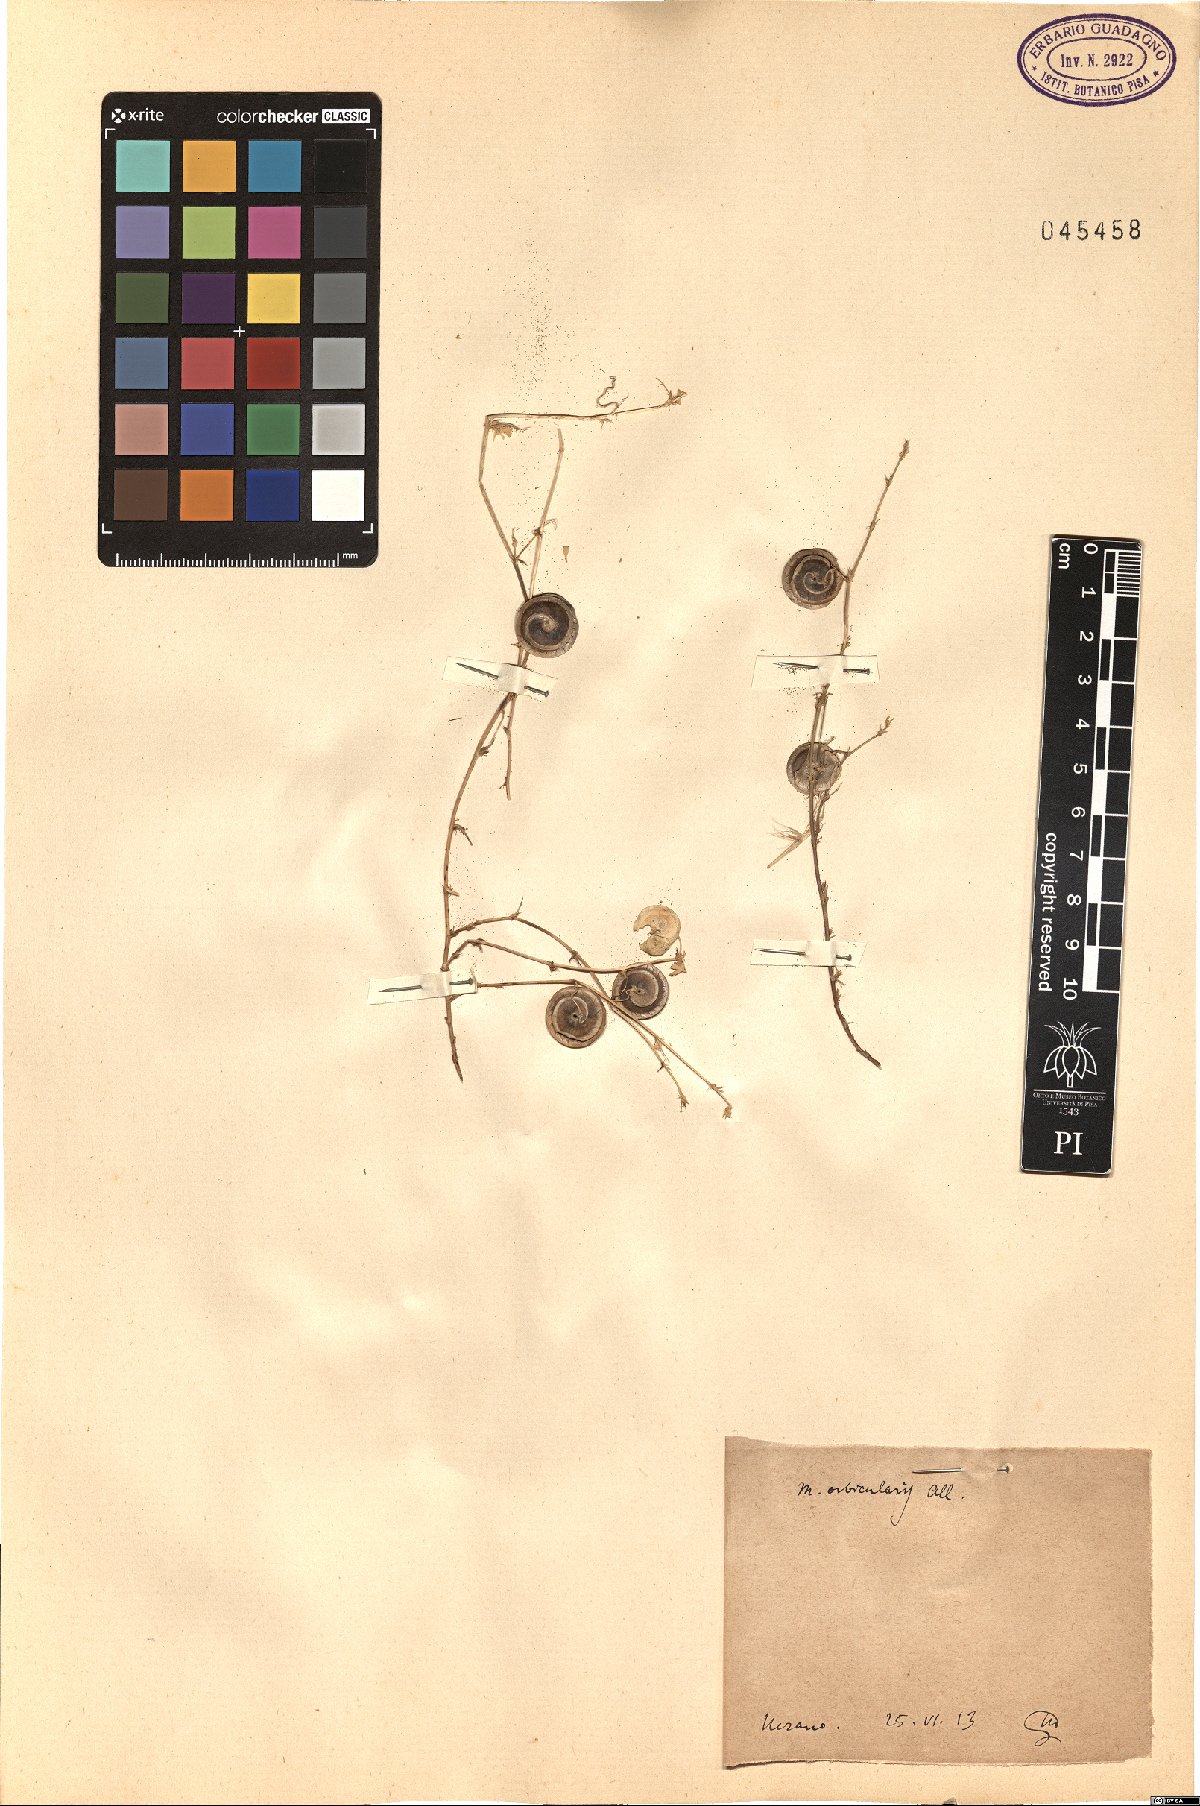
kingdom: Plantae
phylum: Tracheophyta
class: Magnoliopsida
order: Fabales
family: Fabaceae
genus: Medicago
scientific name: Medicago orbicularis
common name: Button medick
